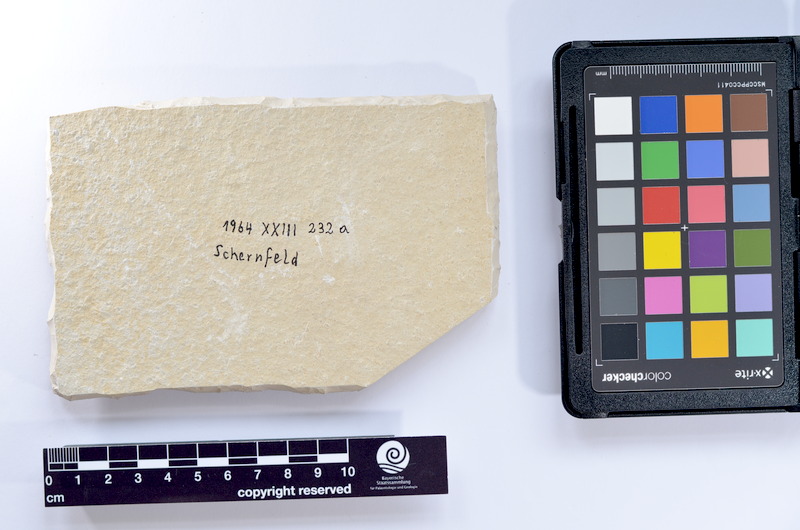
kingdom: Animalia
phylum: Chordata
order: Salmoniformes
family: Orthogonikleithridae
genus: Leptolepides
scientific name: Leptolepides sprattiformis
